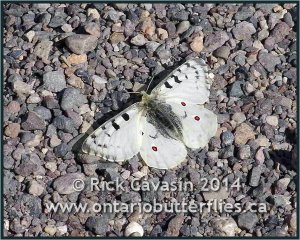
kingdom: Animalia
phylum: Arthropoda
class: Insecta
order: Lepidoptera
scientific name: Lepidoptera
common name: Butterflies
